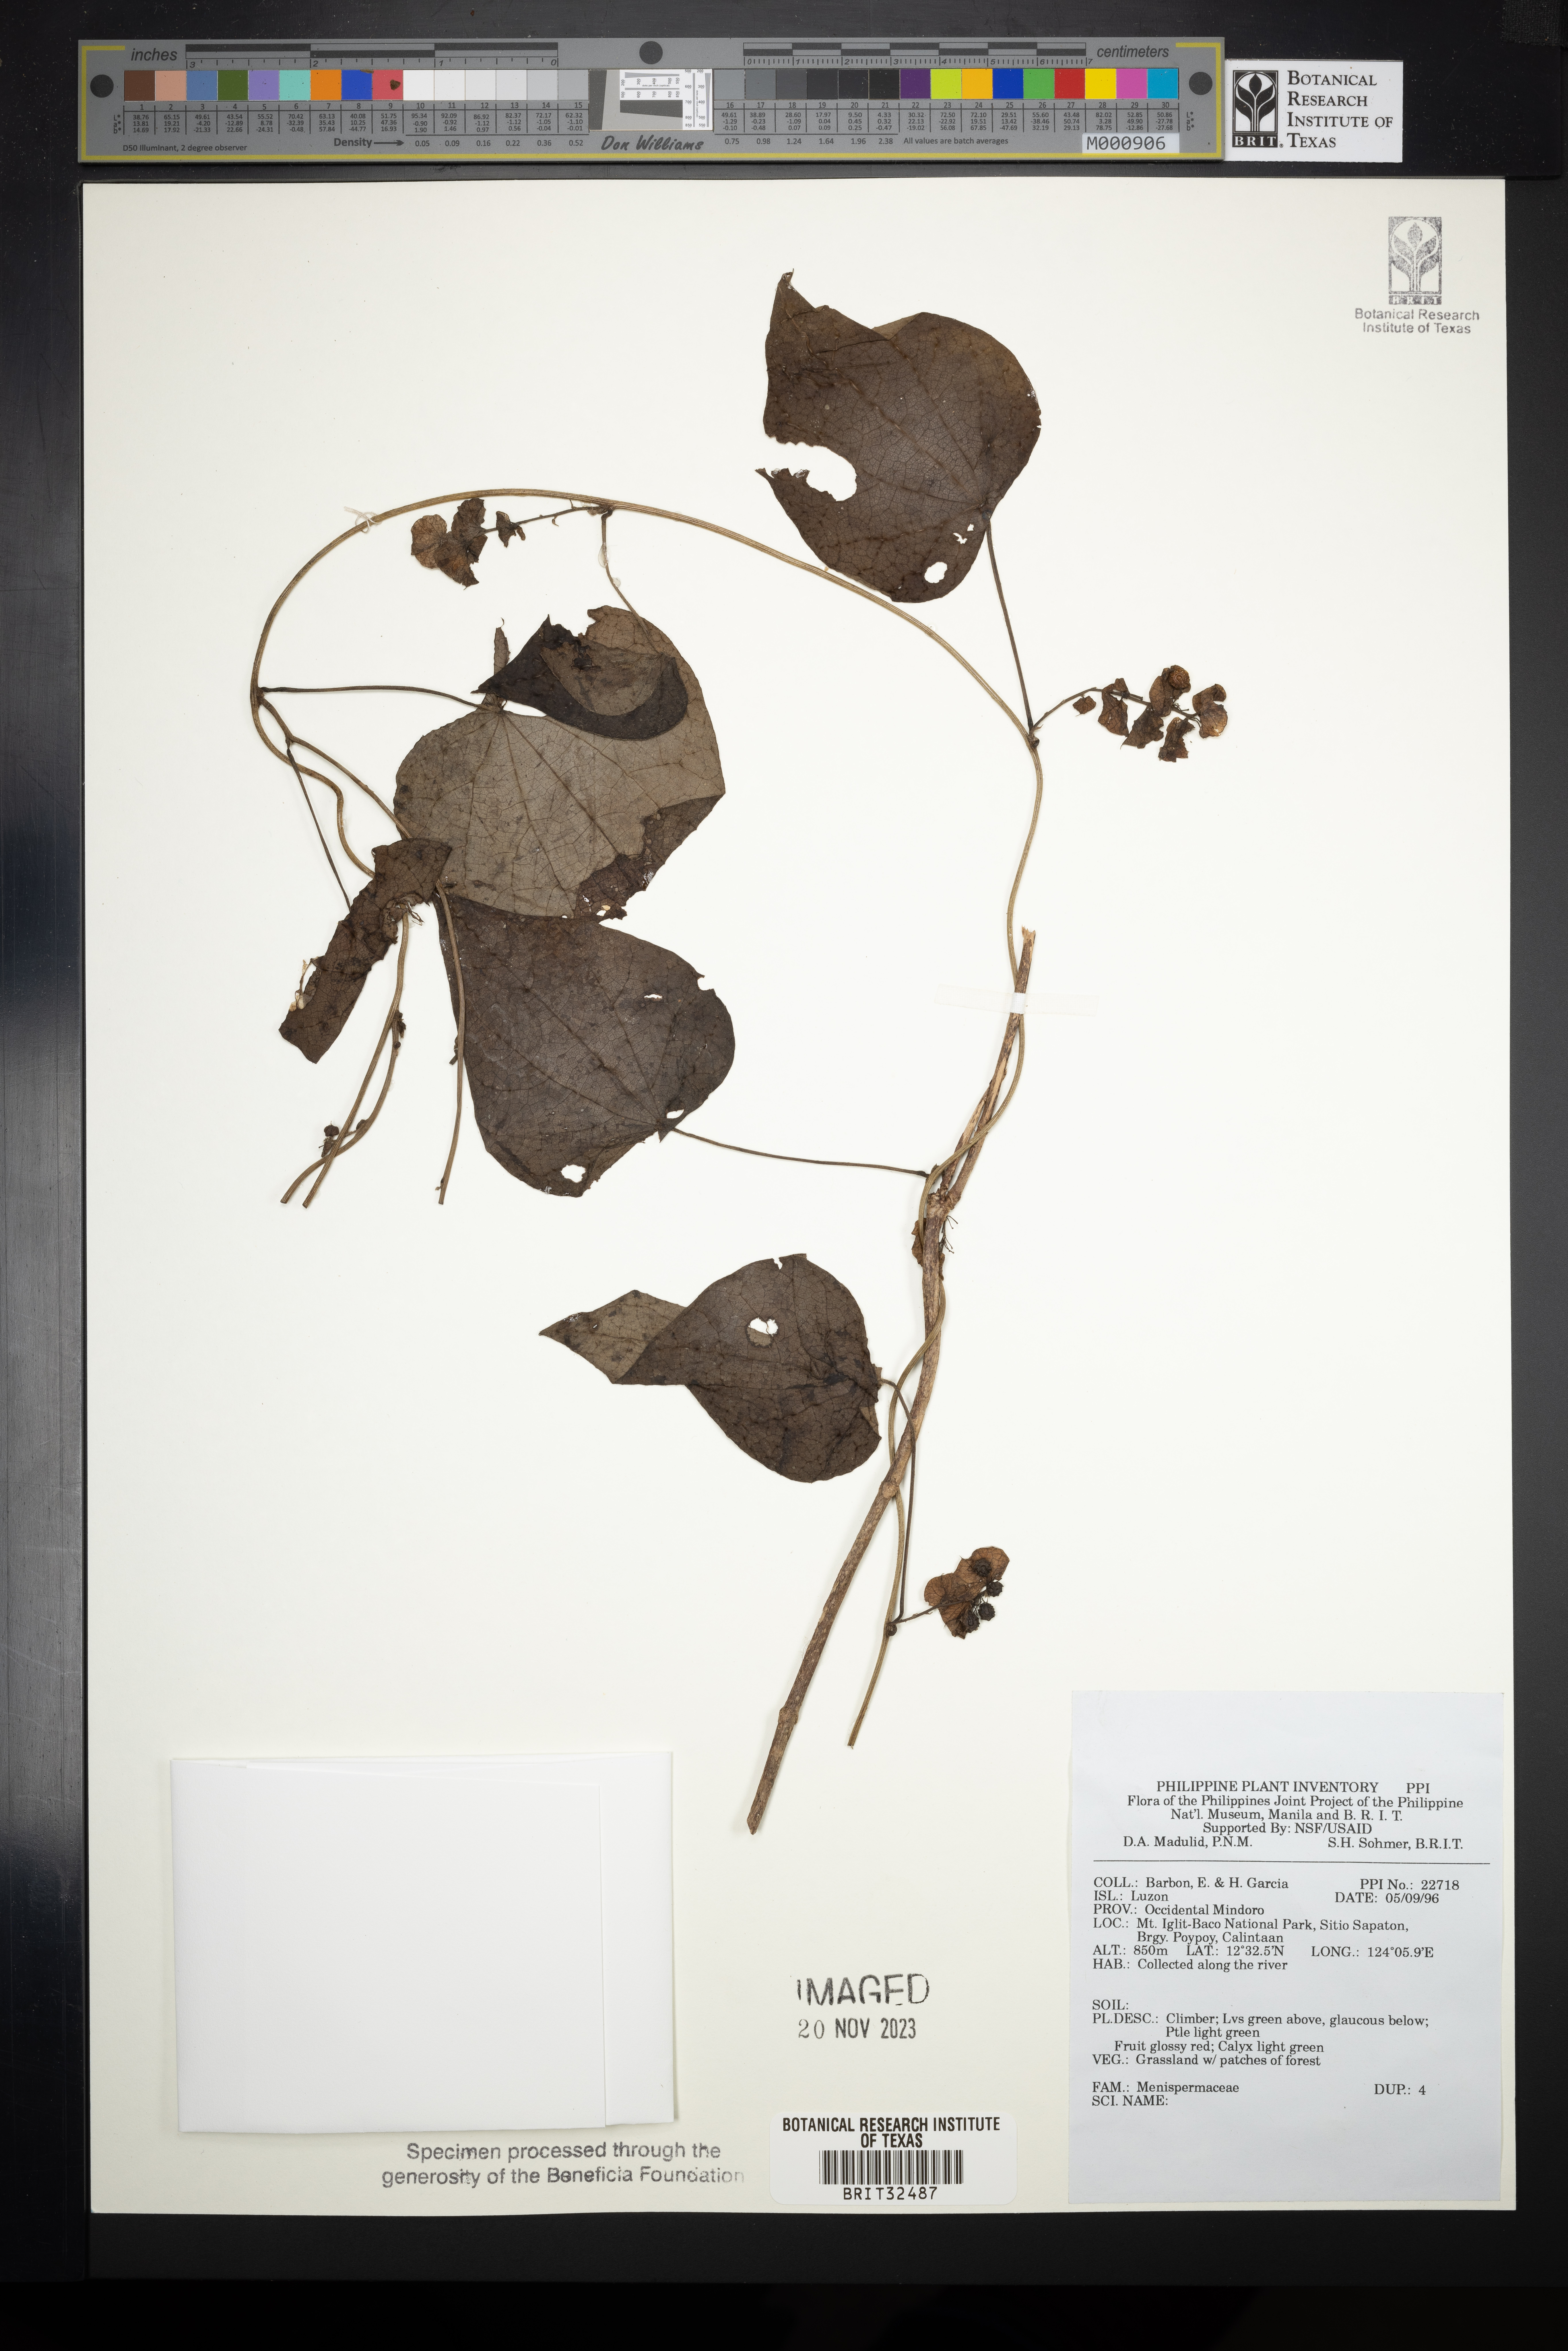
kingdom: Plantae
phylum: Tracheophyta
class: Magnoliopsida
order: Ranunculales
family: Menispermaceae
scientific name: Menispermaceae
